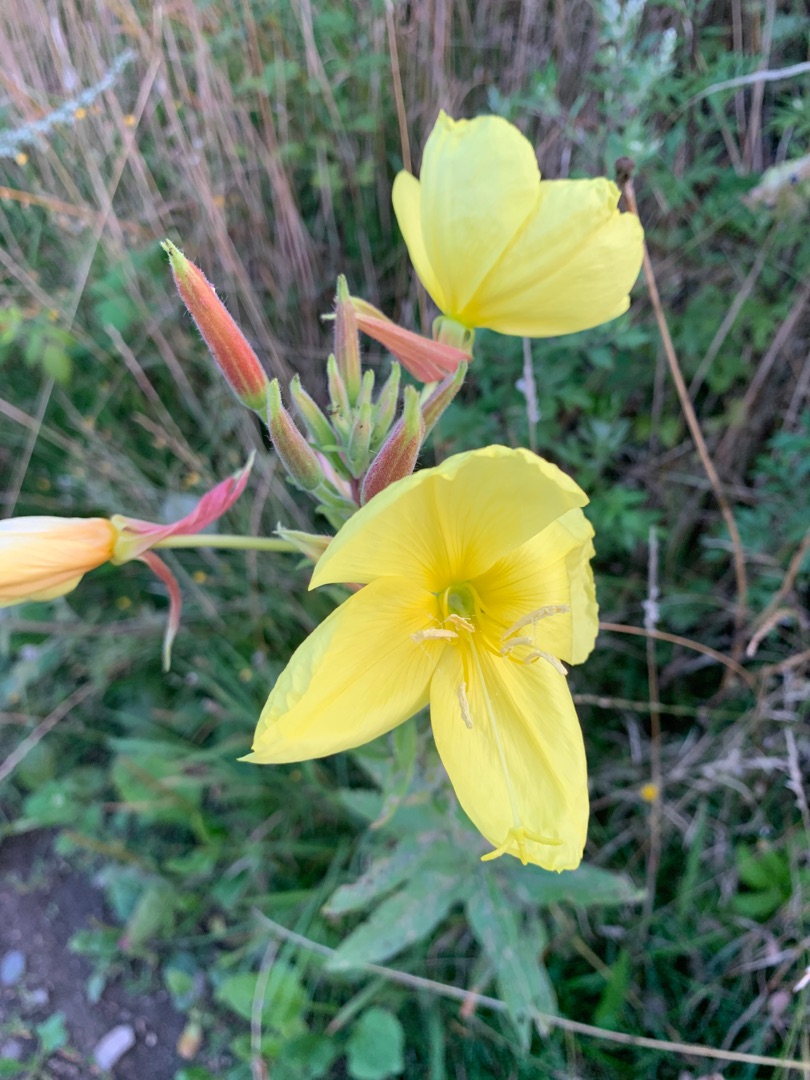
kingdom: Plantae
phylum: Tracheophyta
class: Magnoliopsida
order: Myrtales
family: Onagraceae
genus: Oenothera
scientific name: Oenothera glazioviana
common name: Kæmpe-natlys
